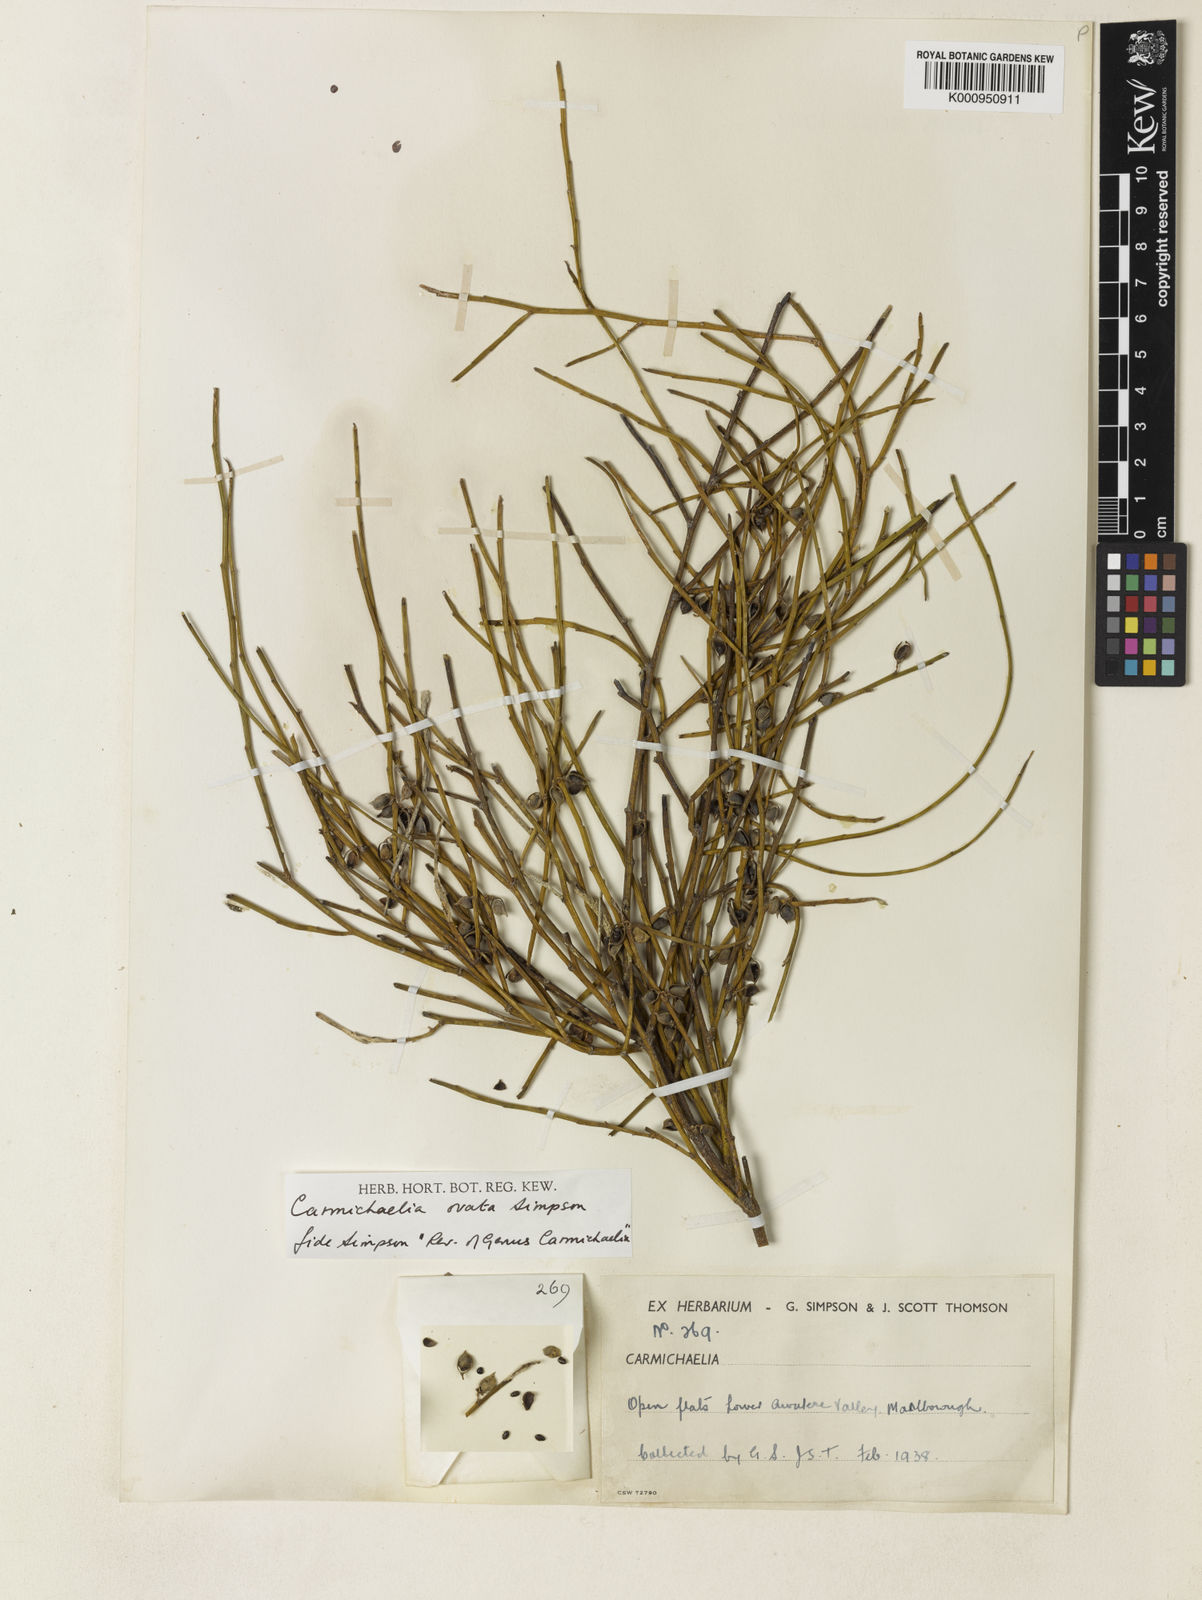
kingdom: Plantae
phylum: Tracheophyta
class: Magnoliopsida
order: Fabales
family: Fabaceae
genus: Carmichaelia
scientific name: Carmichaelia australis
